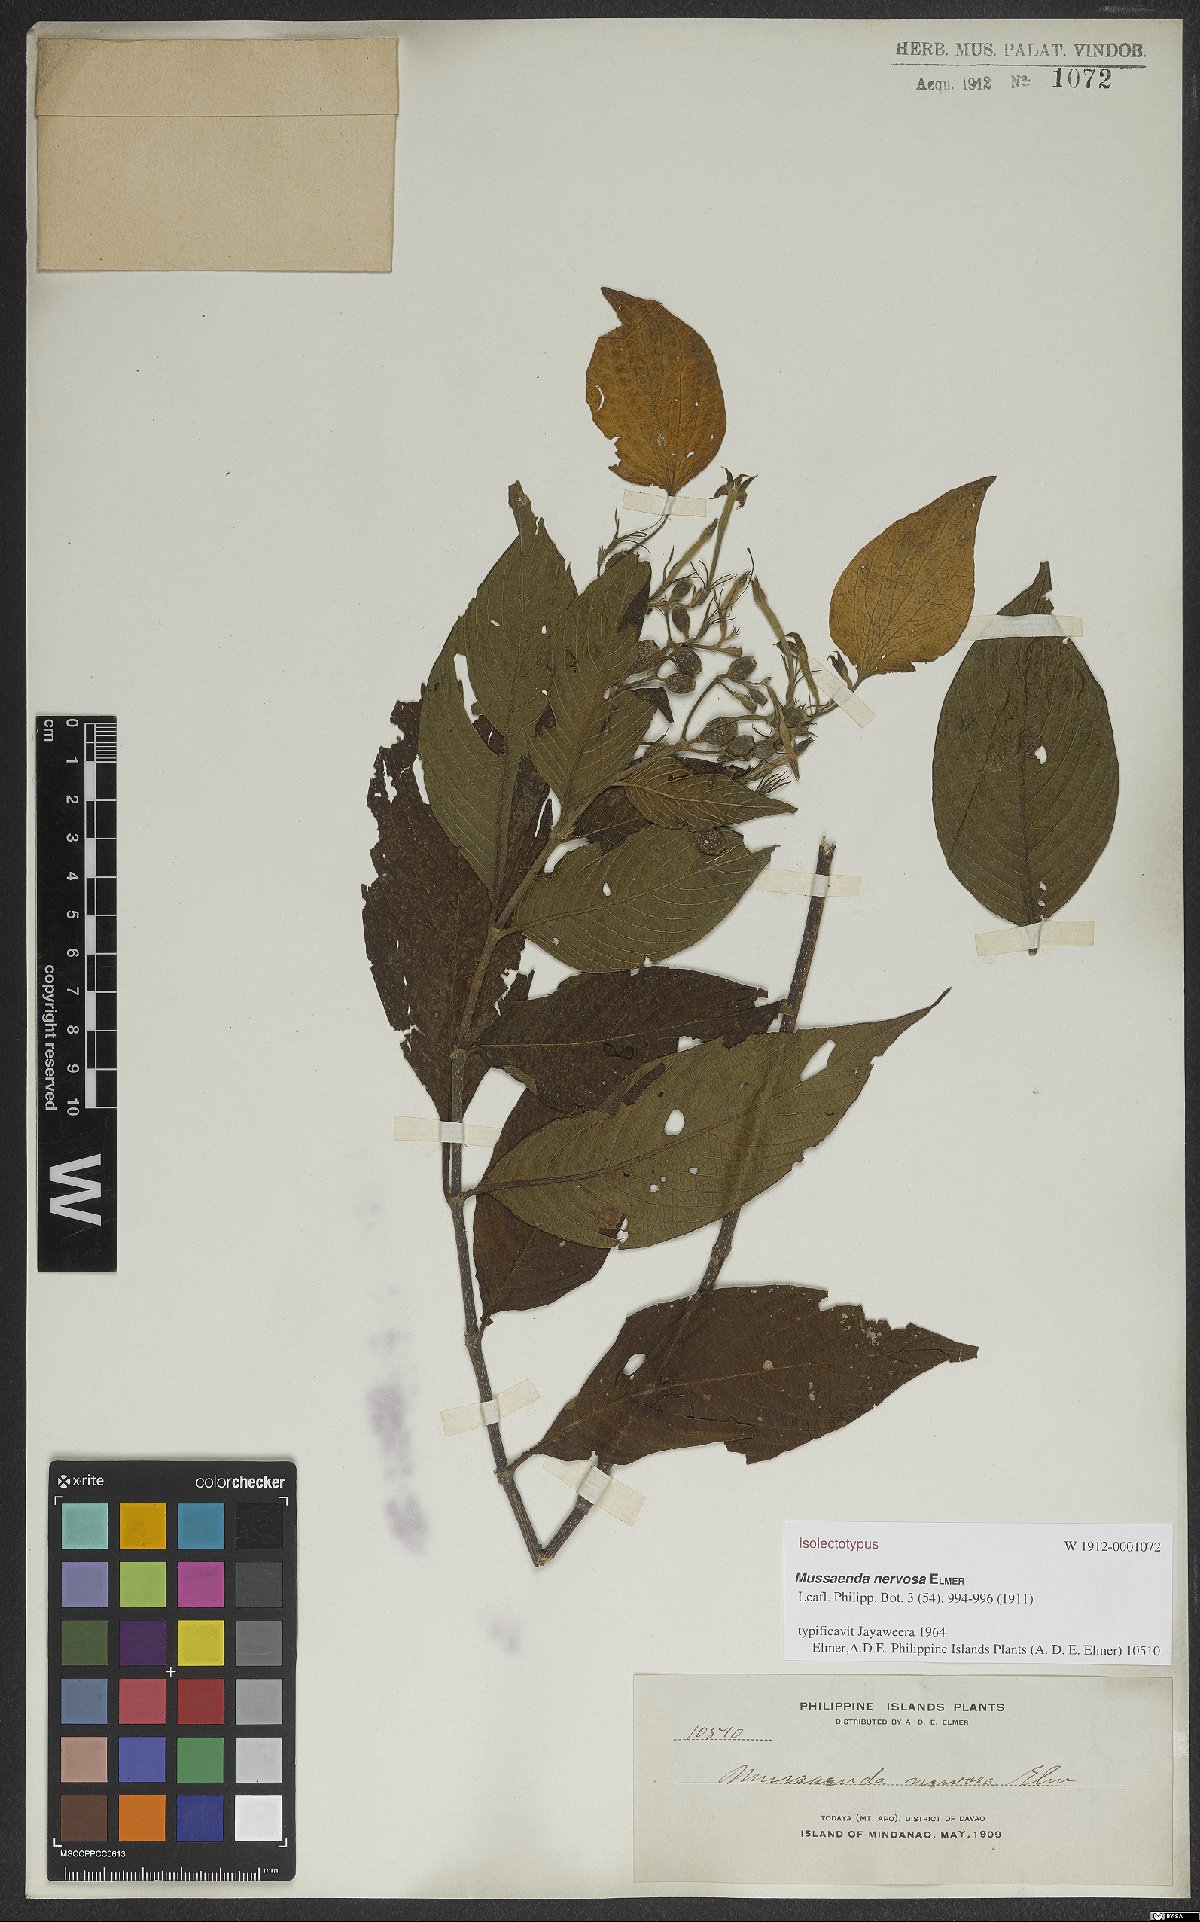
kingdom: Plantae
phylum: Tracheophyta
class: Magnoliopsida
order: Gentianales
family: Rubiaceae
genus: Mussaenda
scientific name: Mussaenda nervosa
